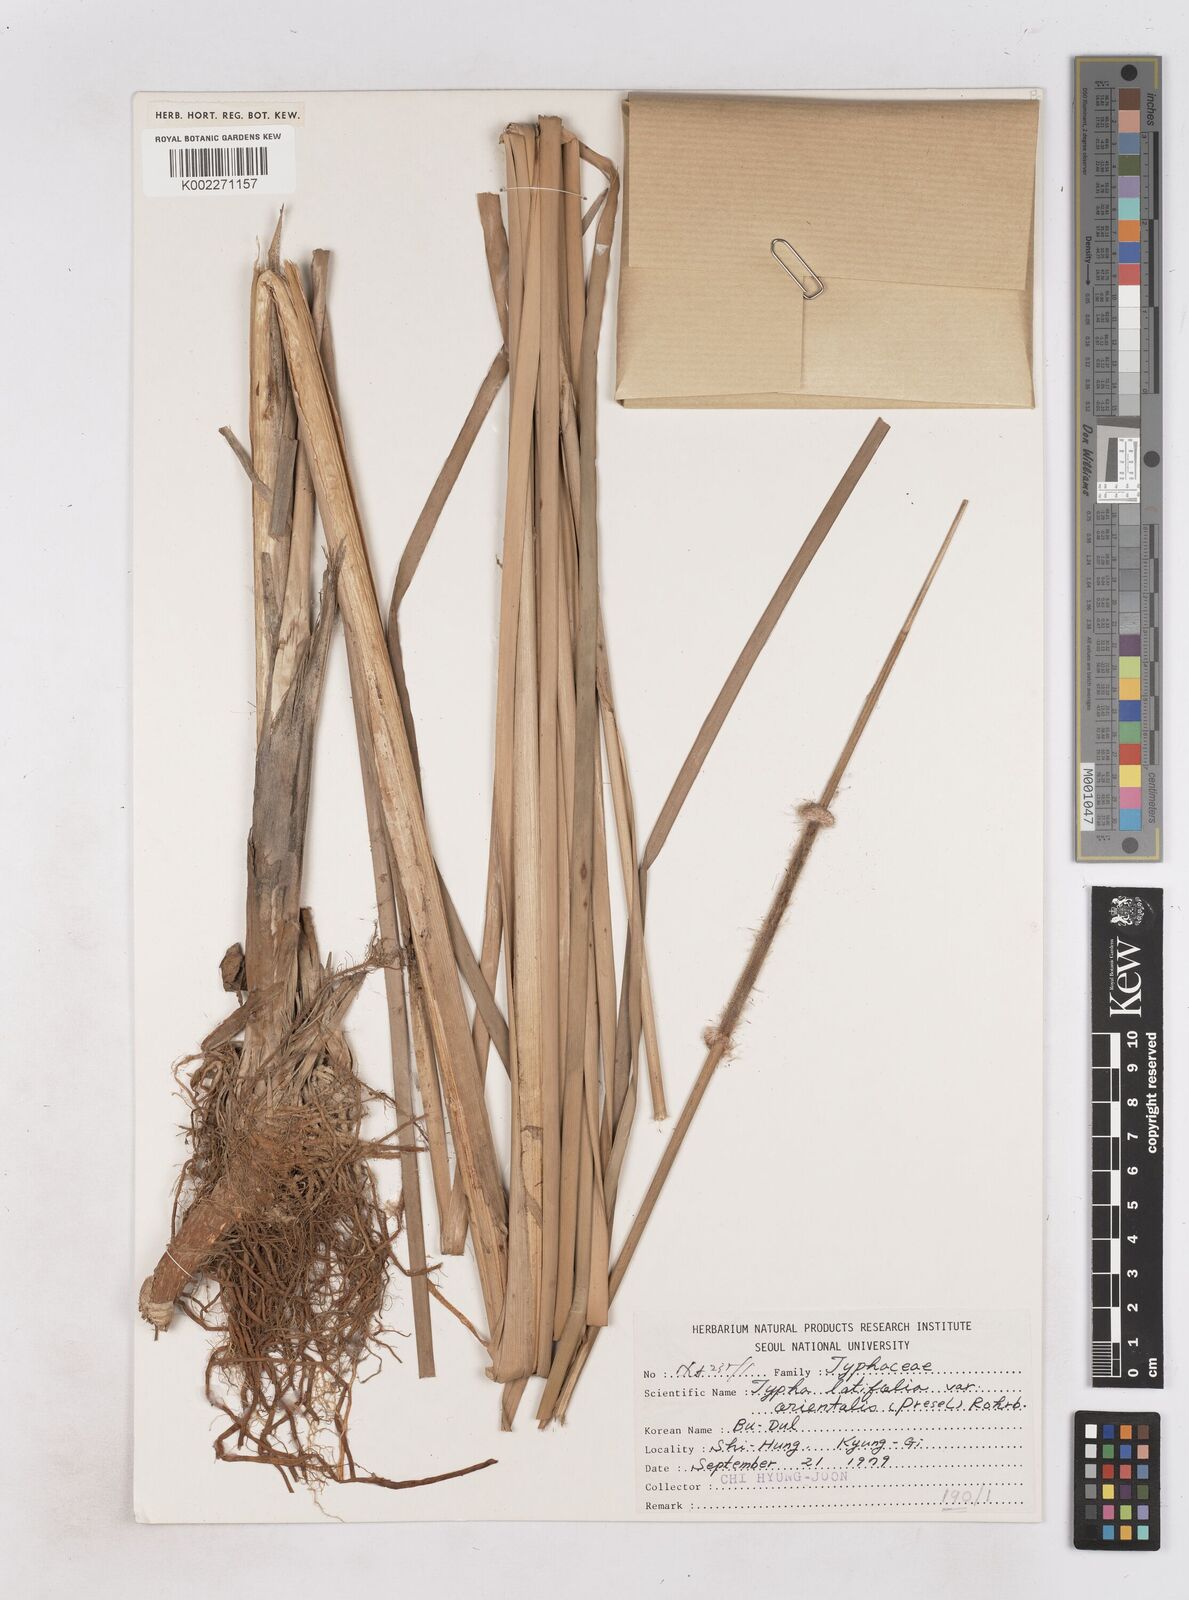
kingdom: Plantae
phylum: Tracheophyta
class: Liliopsida
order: Poales
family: Typhaceae
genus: Typha
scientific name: Typha latifolia
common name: Broadleaf cattail
